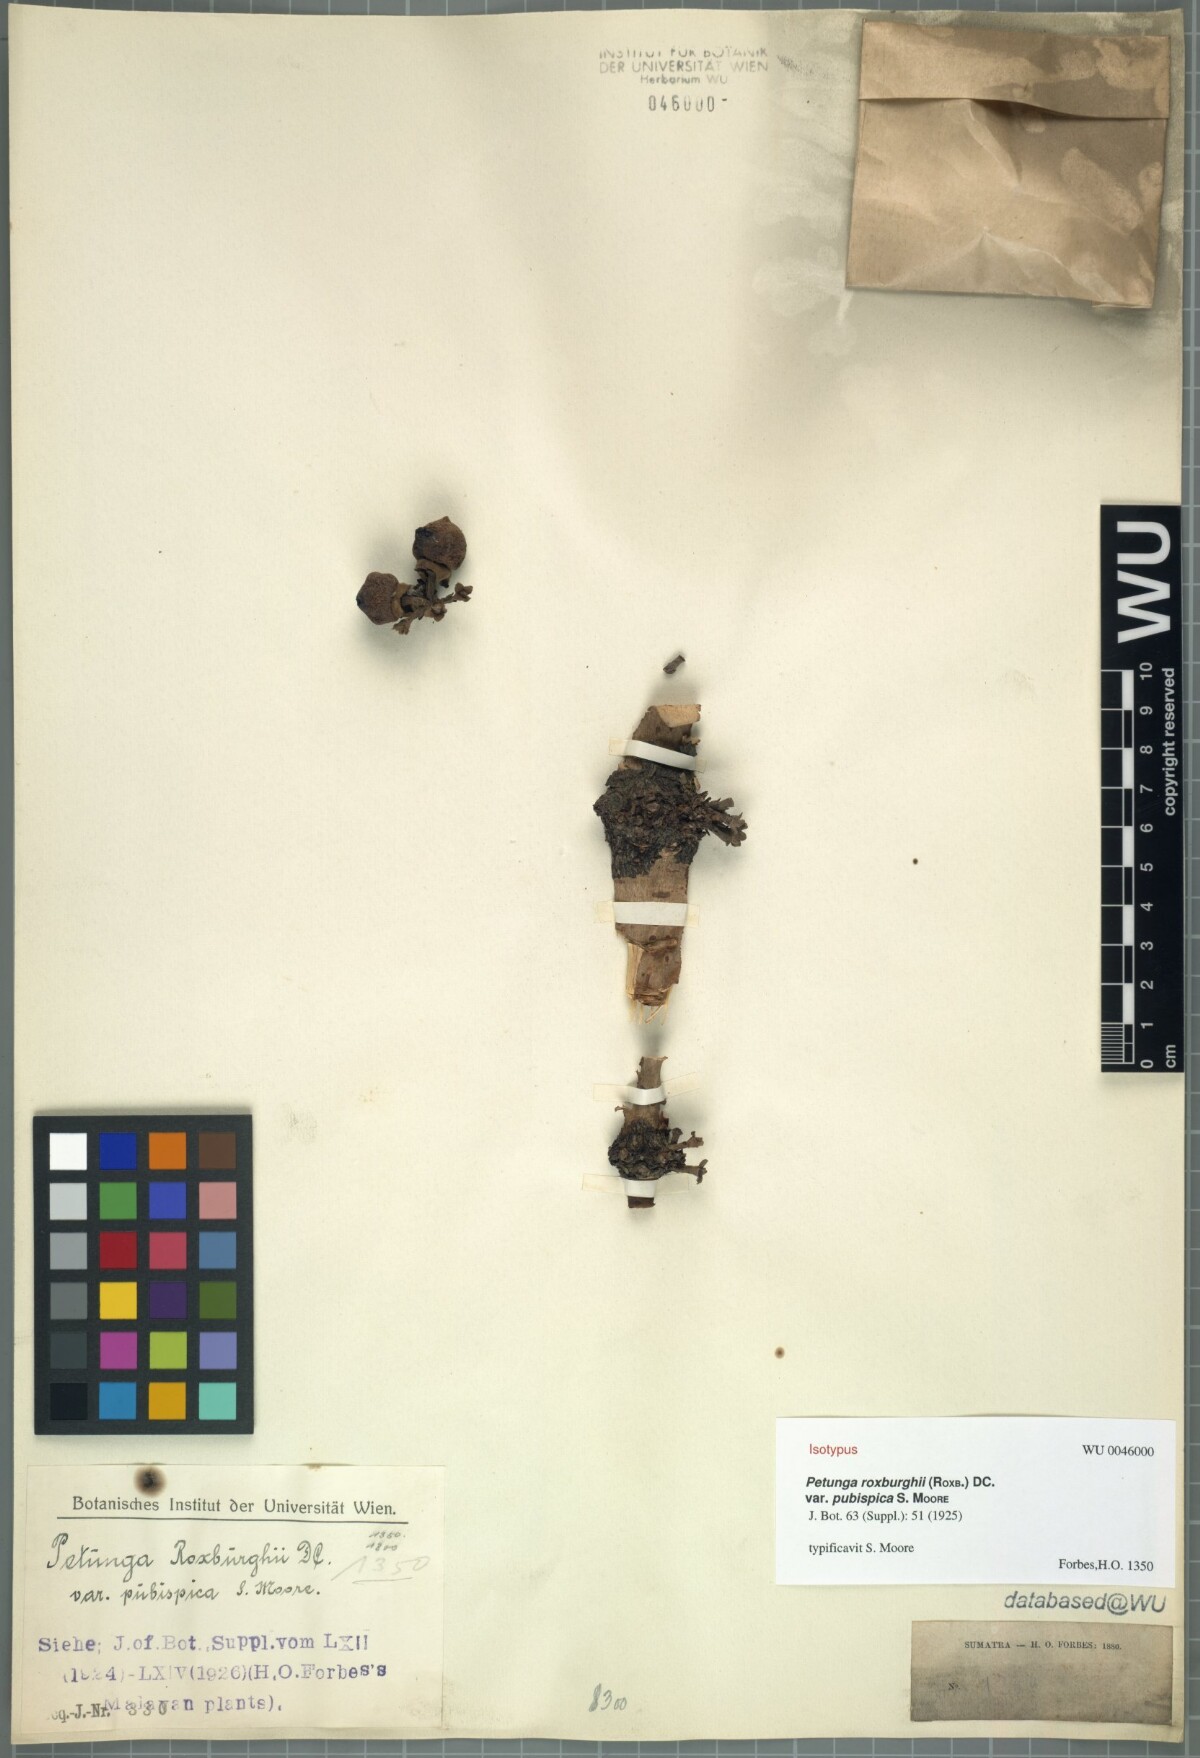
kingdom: Plantae
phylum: Tracheophyta
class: Magnoliopsida
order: Gentianales
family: Rubiaceae
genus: Hypobathrum
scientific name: Hypobathrum racemosum
